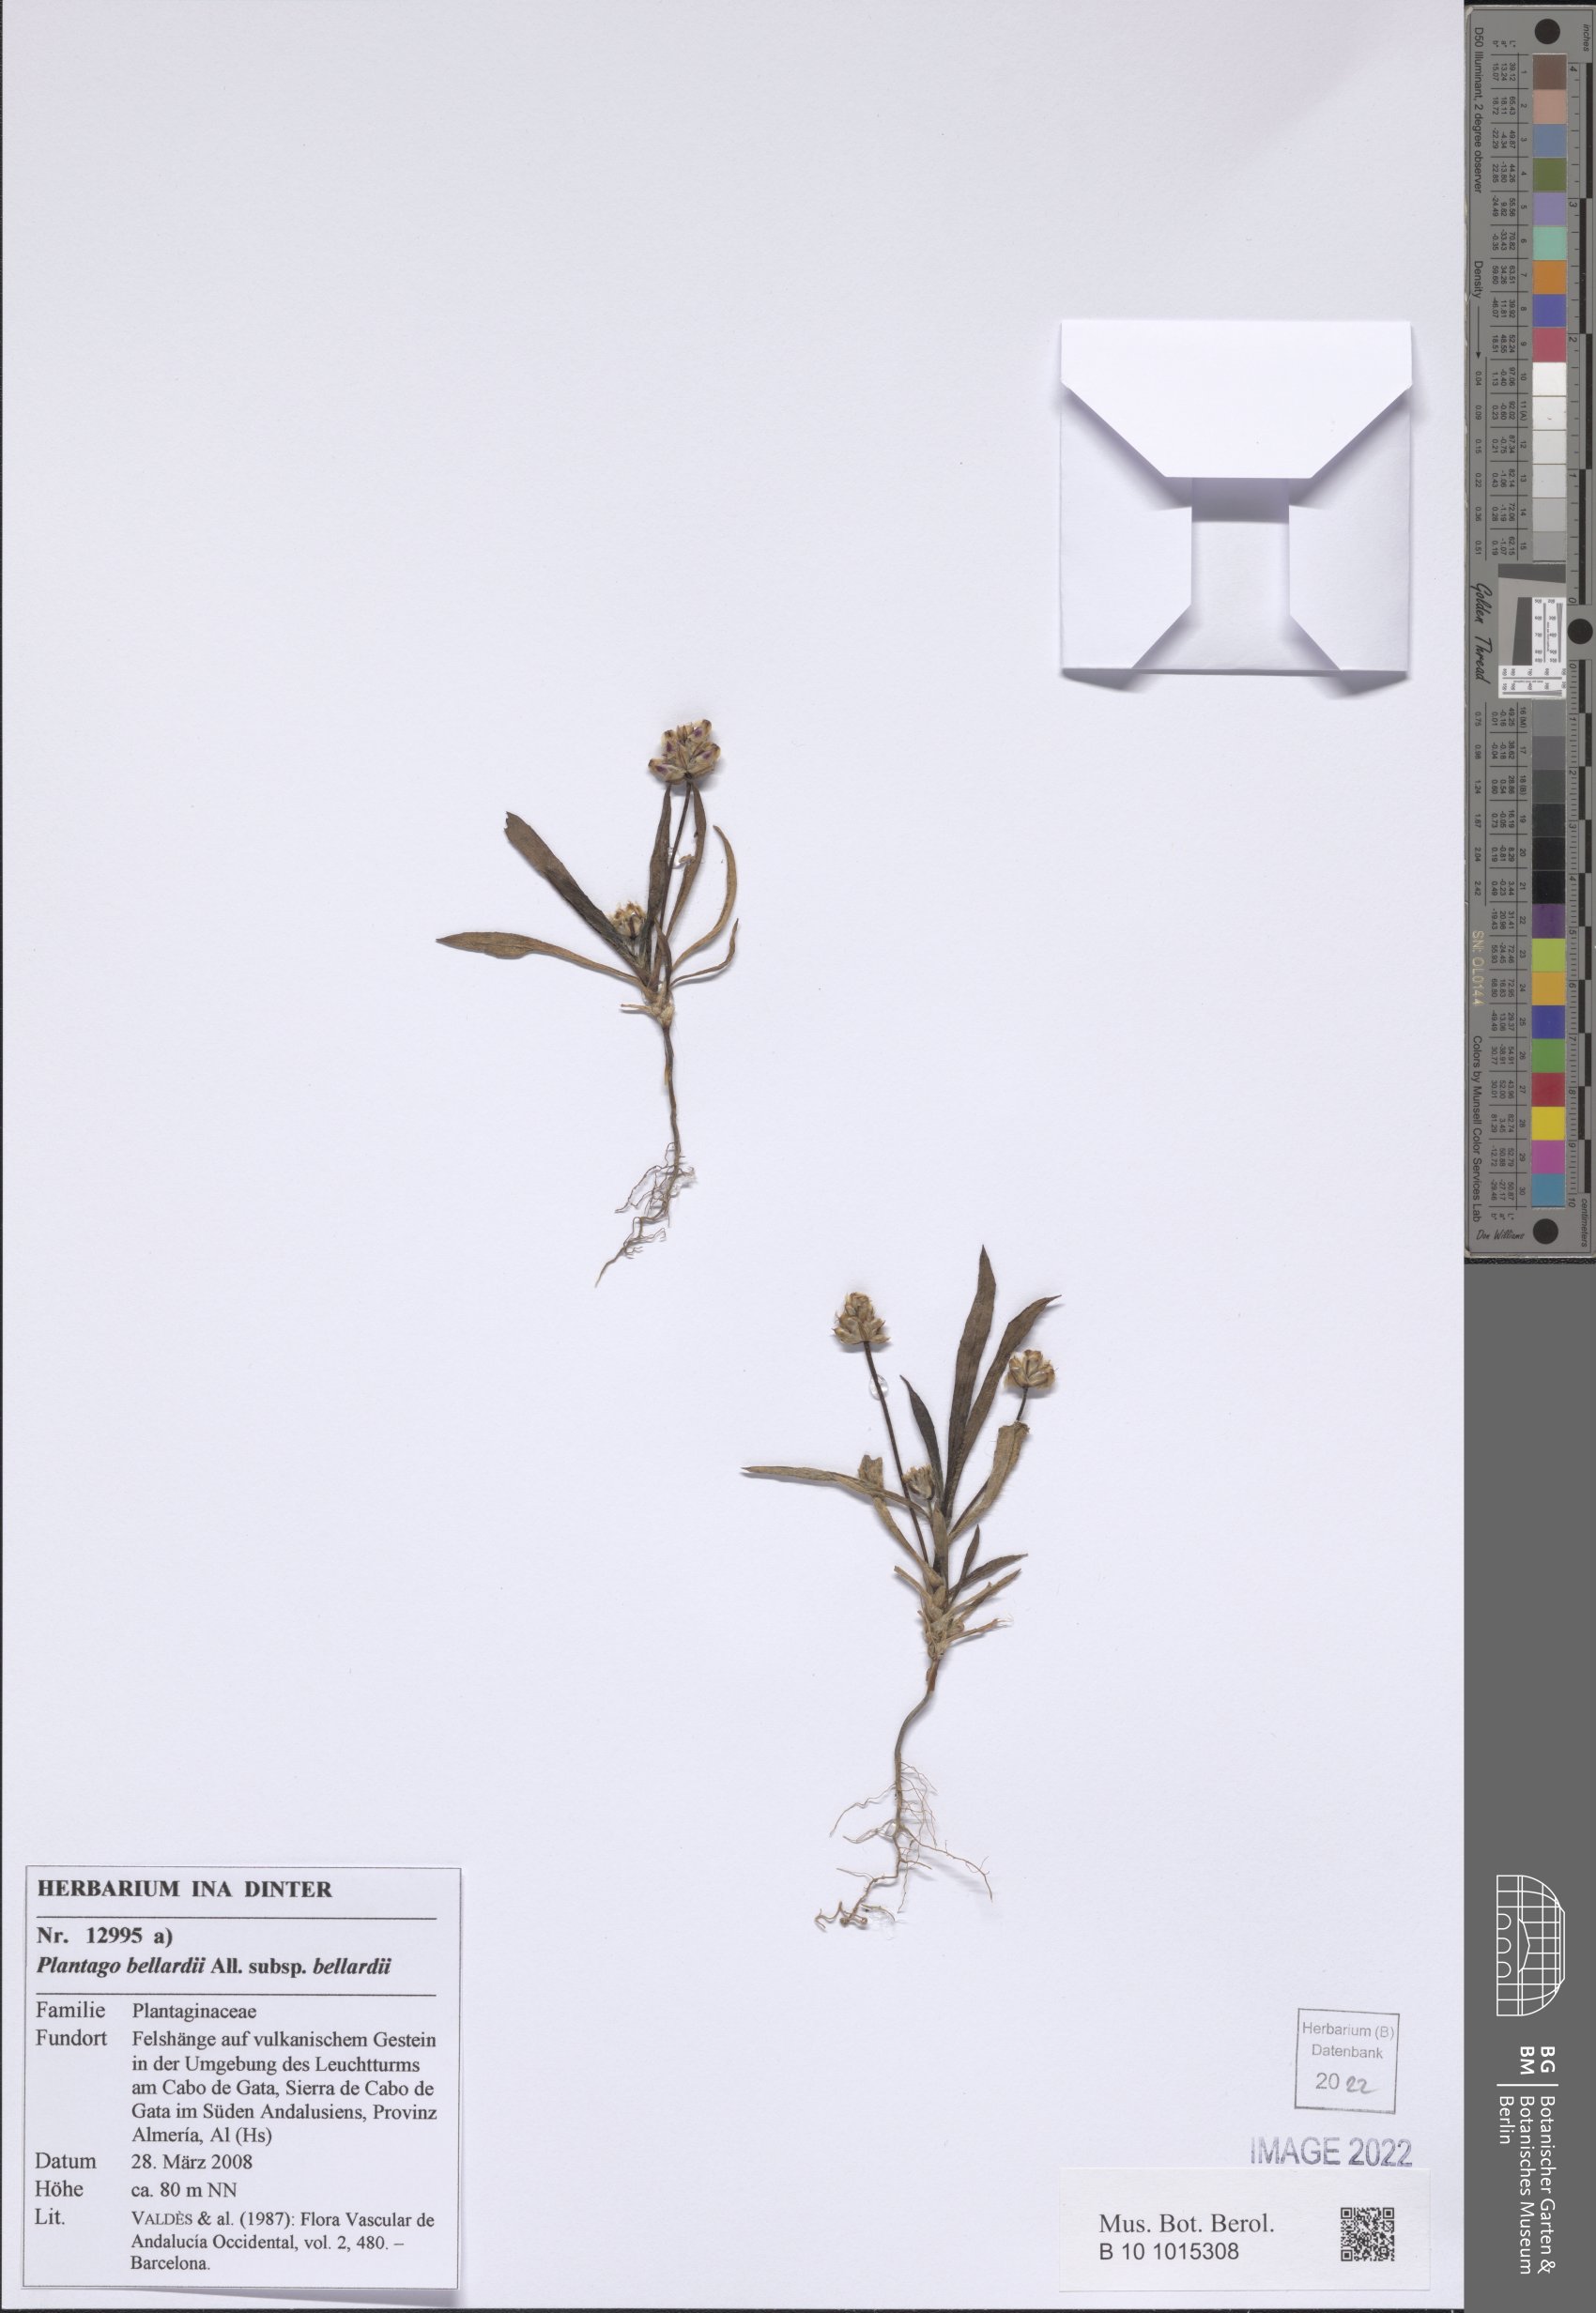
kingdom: Plantae
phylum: Tracheophyta
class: Magnoliopsida
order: Lamiales
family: Plantaginaceae
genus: Plantago
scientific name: Plantago bellardii
